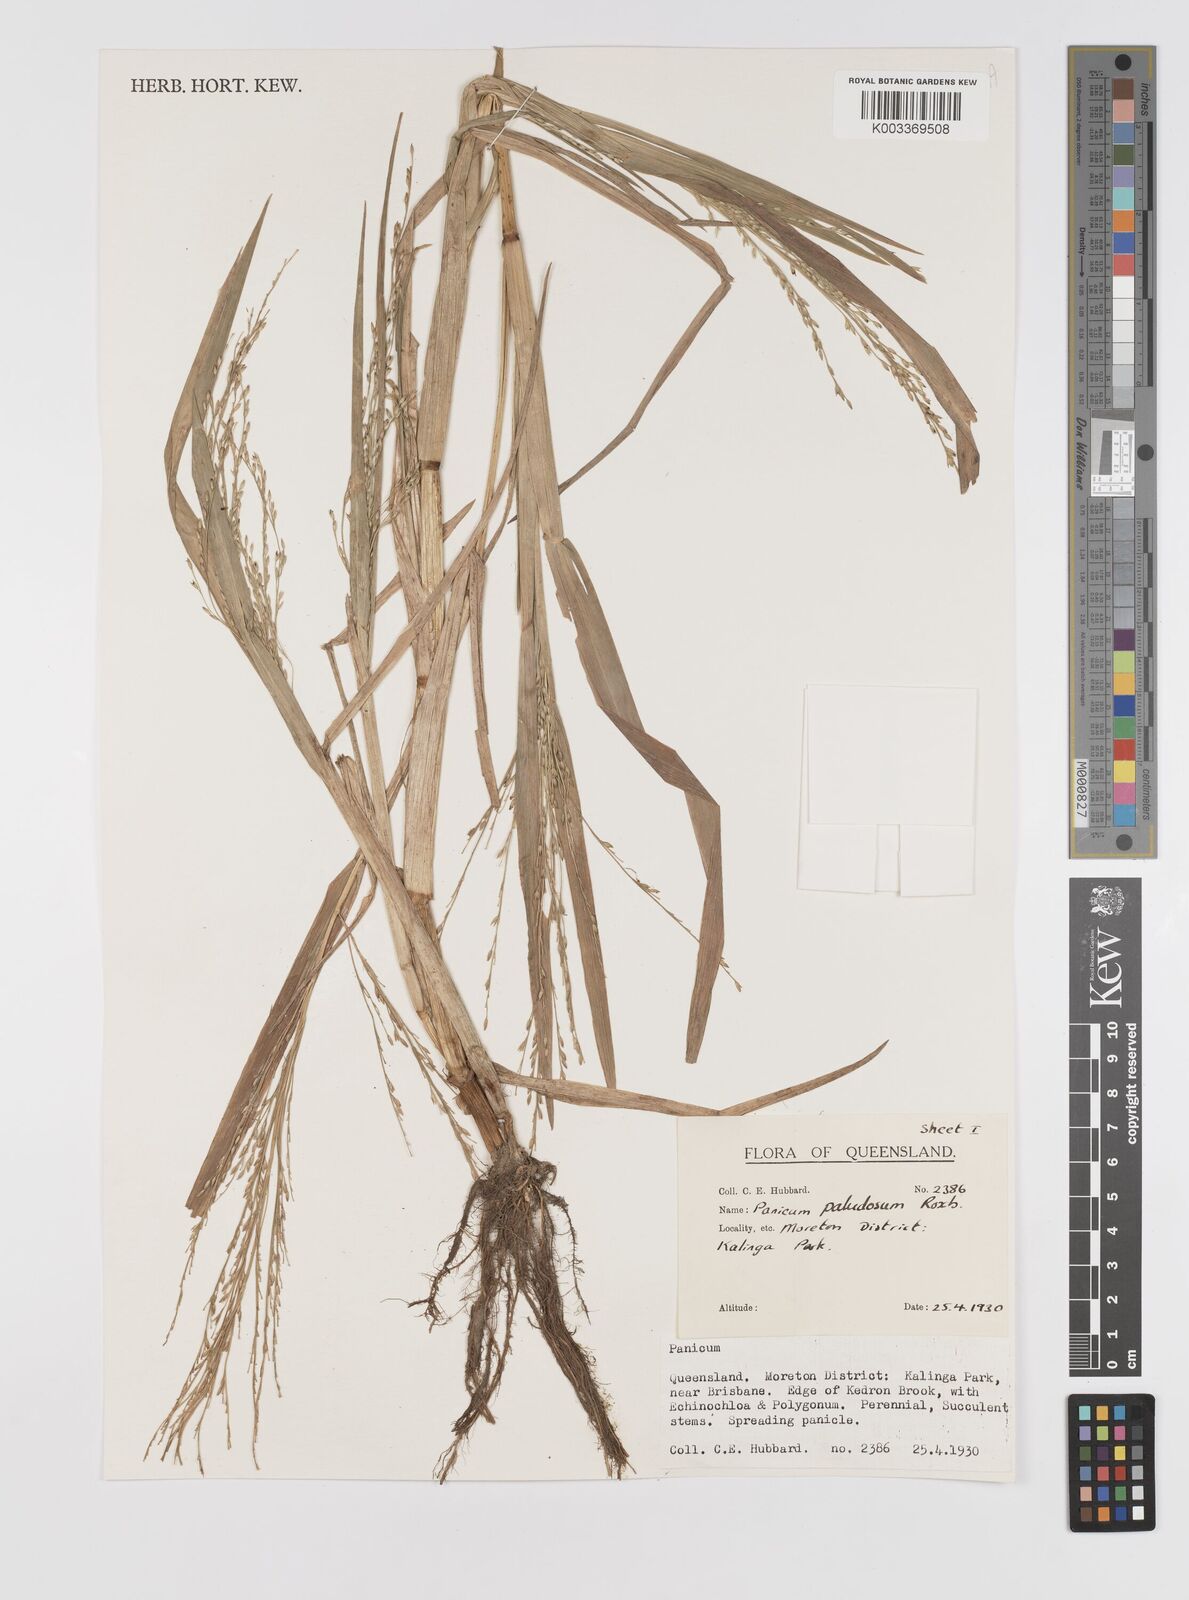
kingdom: Plantae
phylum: Tracheophyta
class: Liliopsida
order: Poales
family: Poaceae
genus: Louisiella
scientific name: Louisiella paludosa
